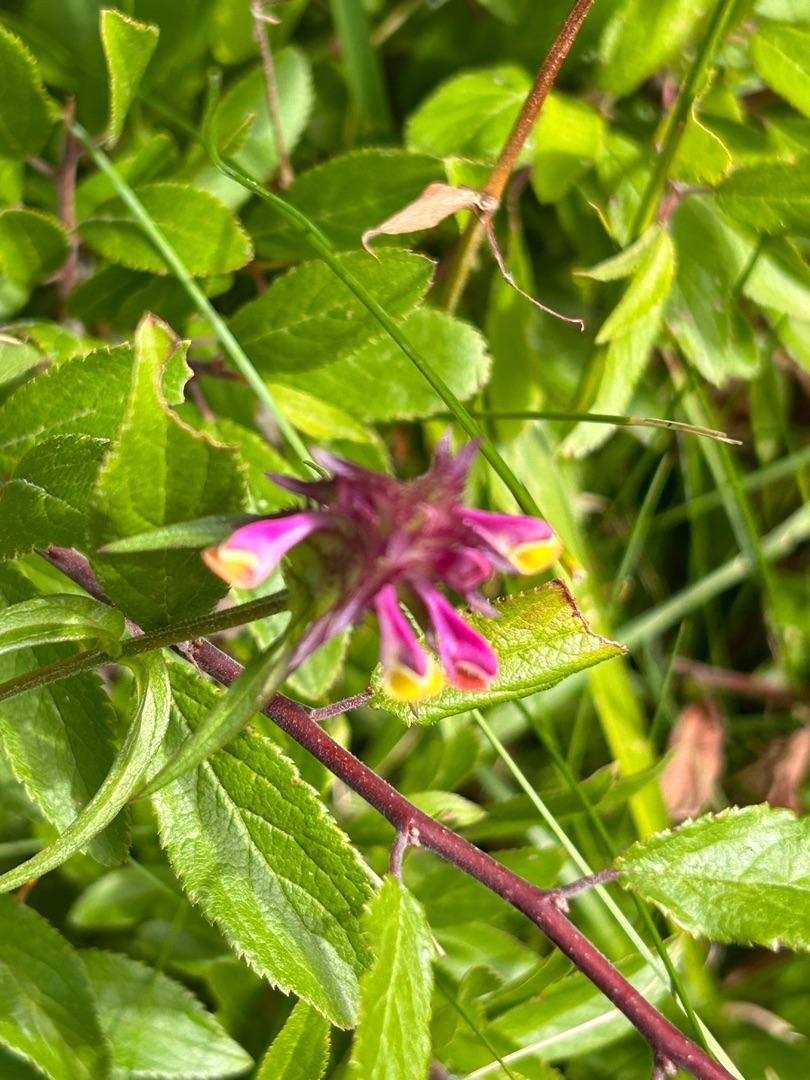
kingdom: Plantae
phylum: Tracheophyta
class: Magnoliopsida
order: Lamiales
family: Orobanchaceae
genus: Melampyrum
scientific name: Melampyrum cristatum
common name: Kantet kohvede
